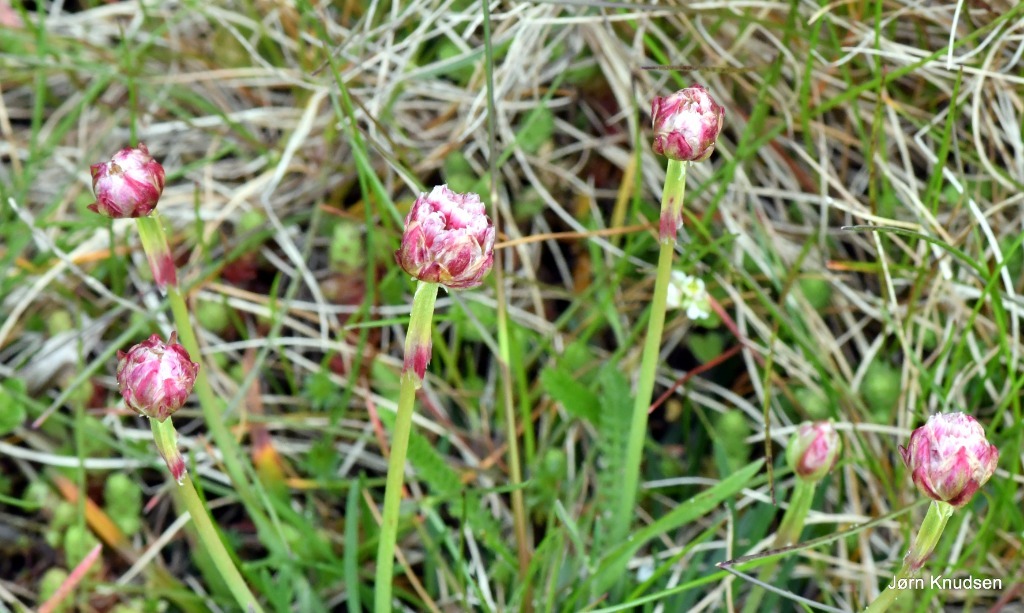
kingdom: Plantae
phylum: Tracheophyta
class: Magnoliopsida
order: Caryophyllales
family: Plumbaginaceae
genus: Armeria
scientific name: Armeria maritima
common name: Engelskgræs
